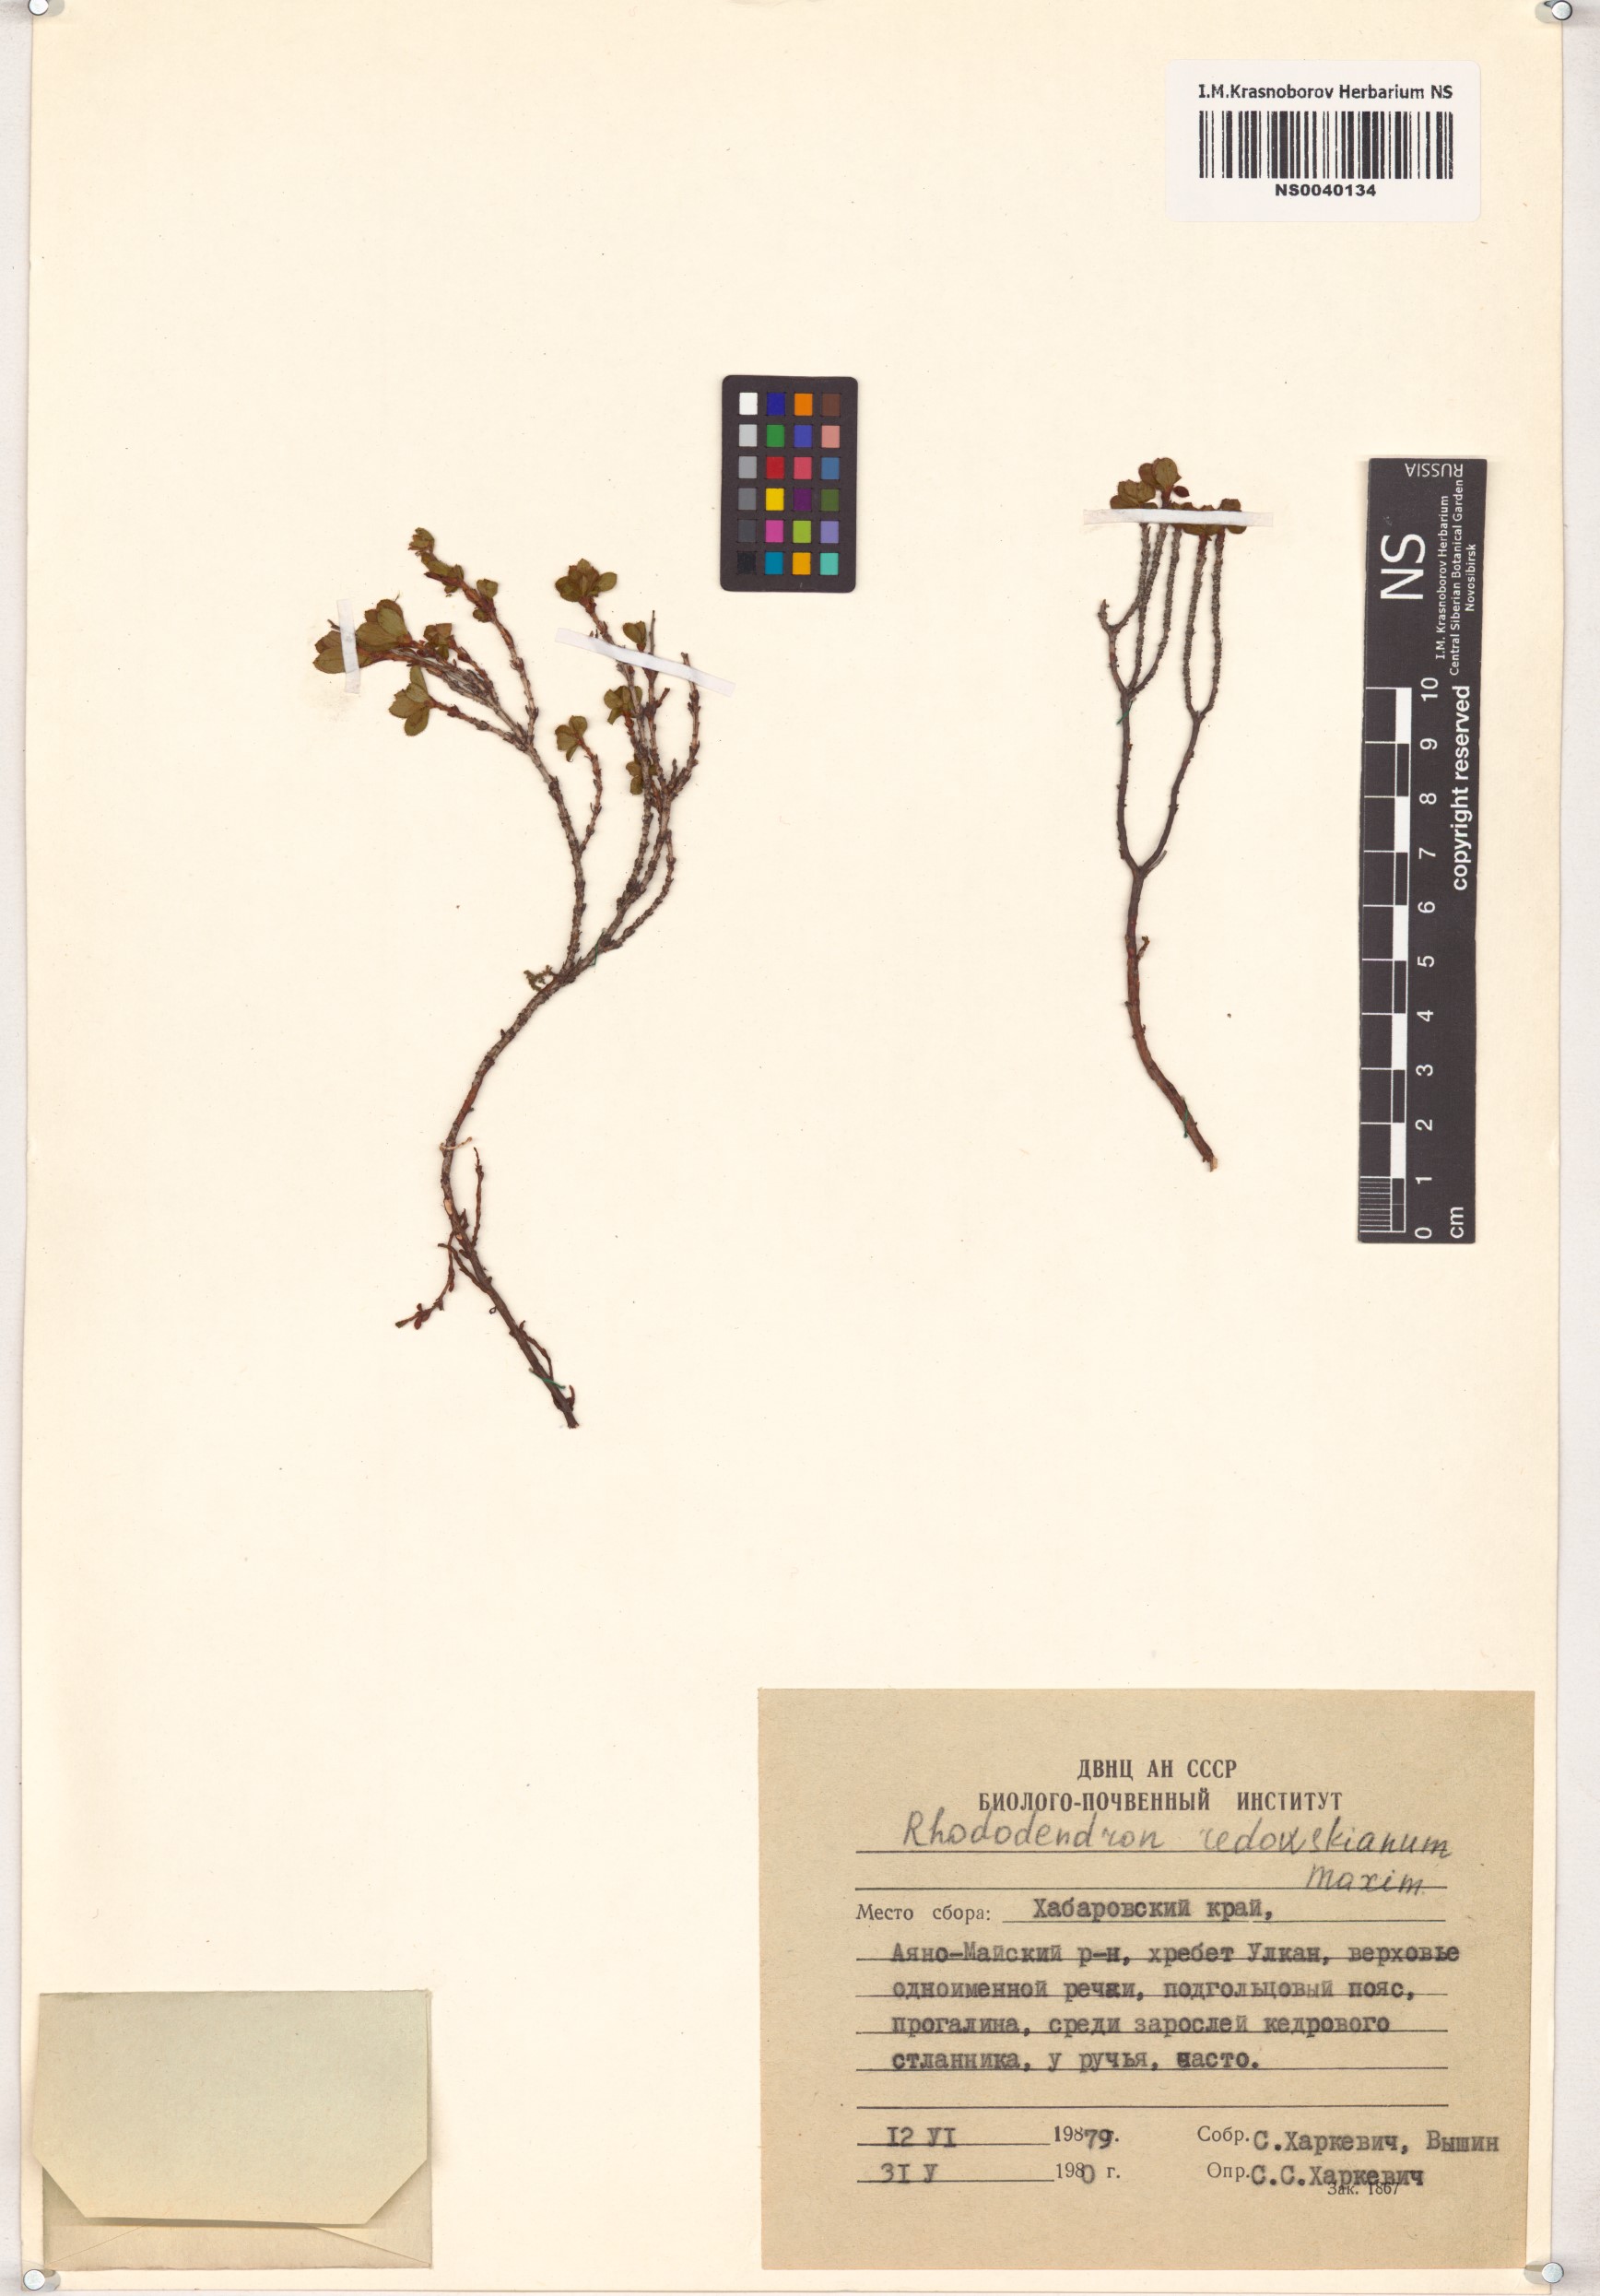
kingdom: Plantae
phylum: Tracheophyta
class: Magnoliopsida
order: Ericales
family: Ericaceae
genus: Rhododendron
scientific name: Rhododendron redowskianum
